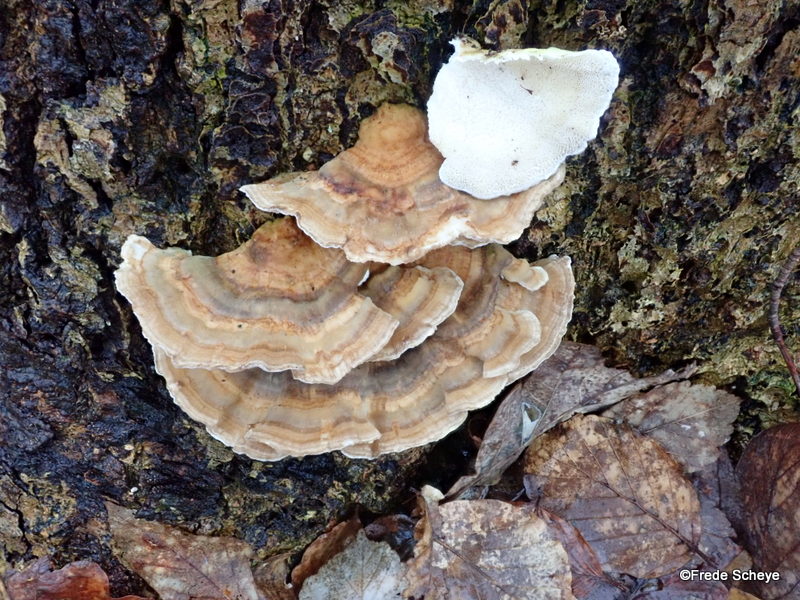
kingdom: Fungi
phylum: Basidiomycota
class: Agaricomycetes
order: Polyporales
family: Polyporaceae
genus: Trametes
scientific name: Trametes versicolor
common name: broget læderporesvamp
